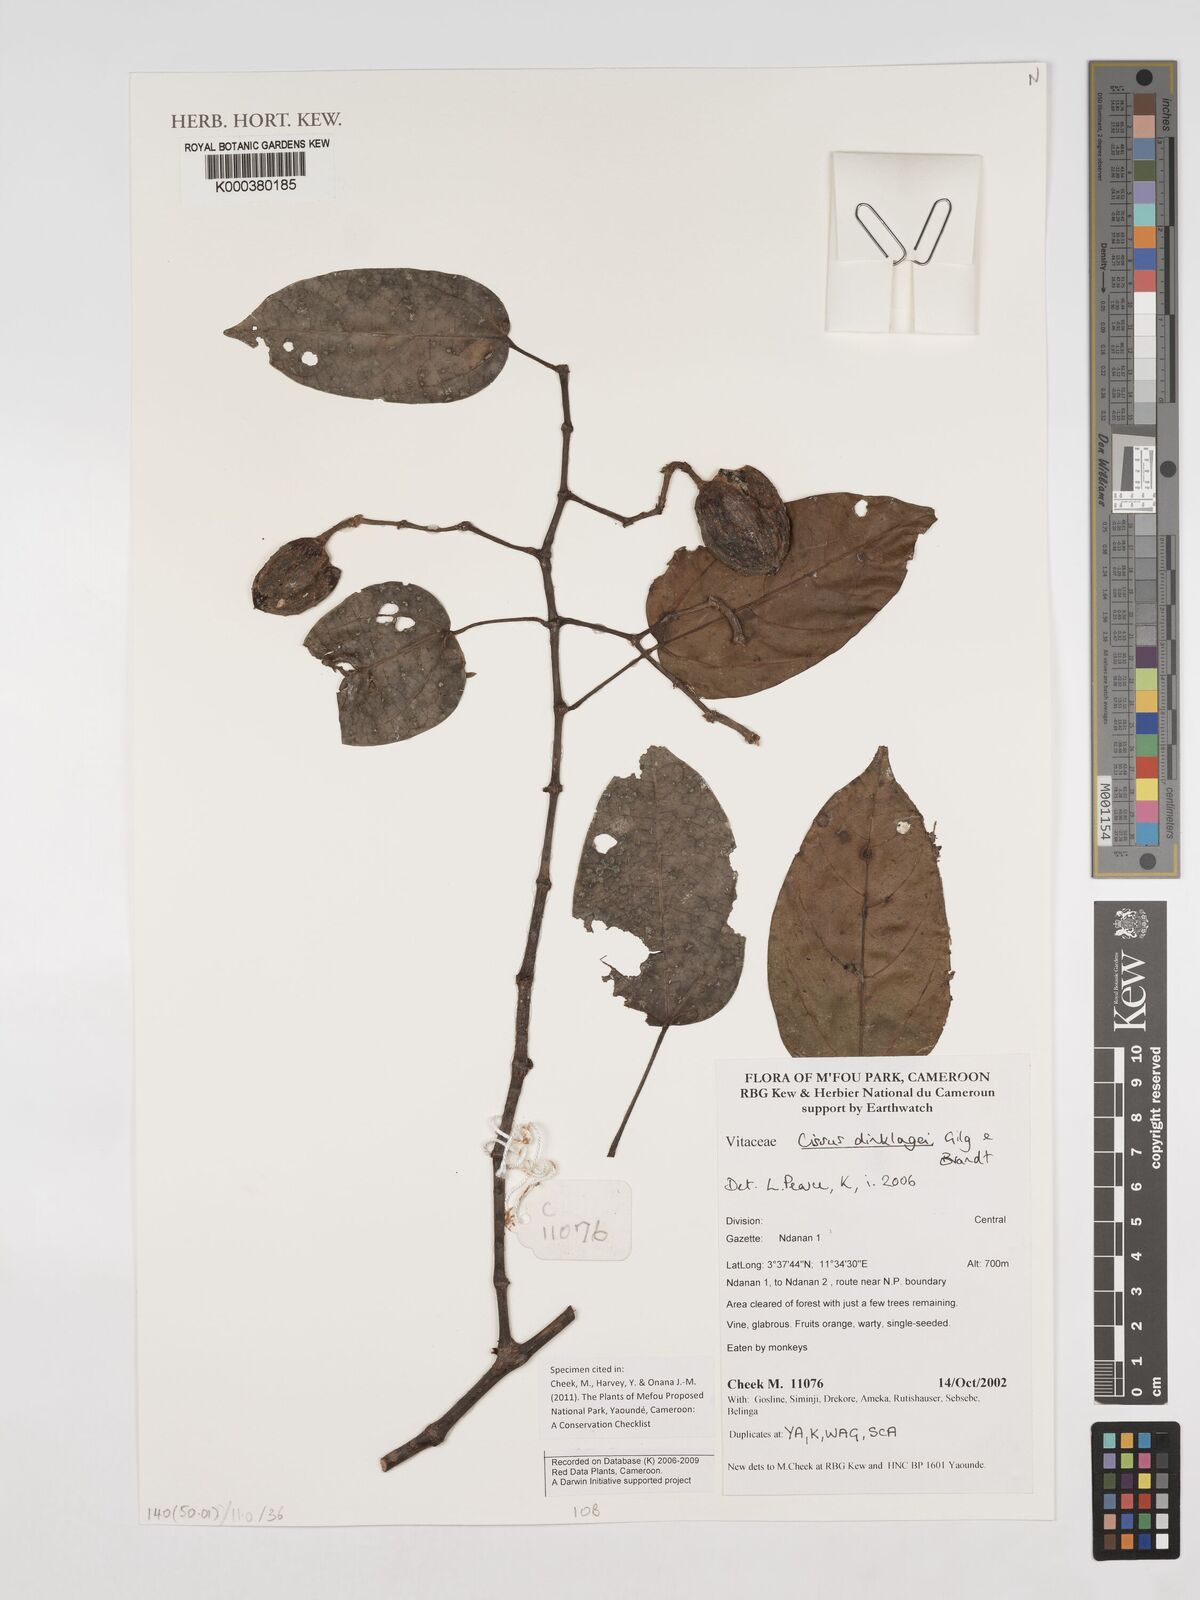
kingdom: Plantae
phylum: Tracheophyta
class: Magnoliopsida
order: Vitales
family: Vitaceae
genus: Cissus
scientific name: Cissus dinklagei
